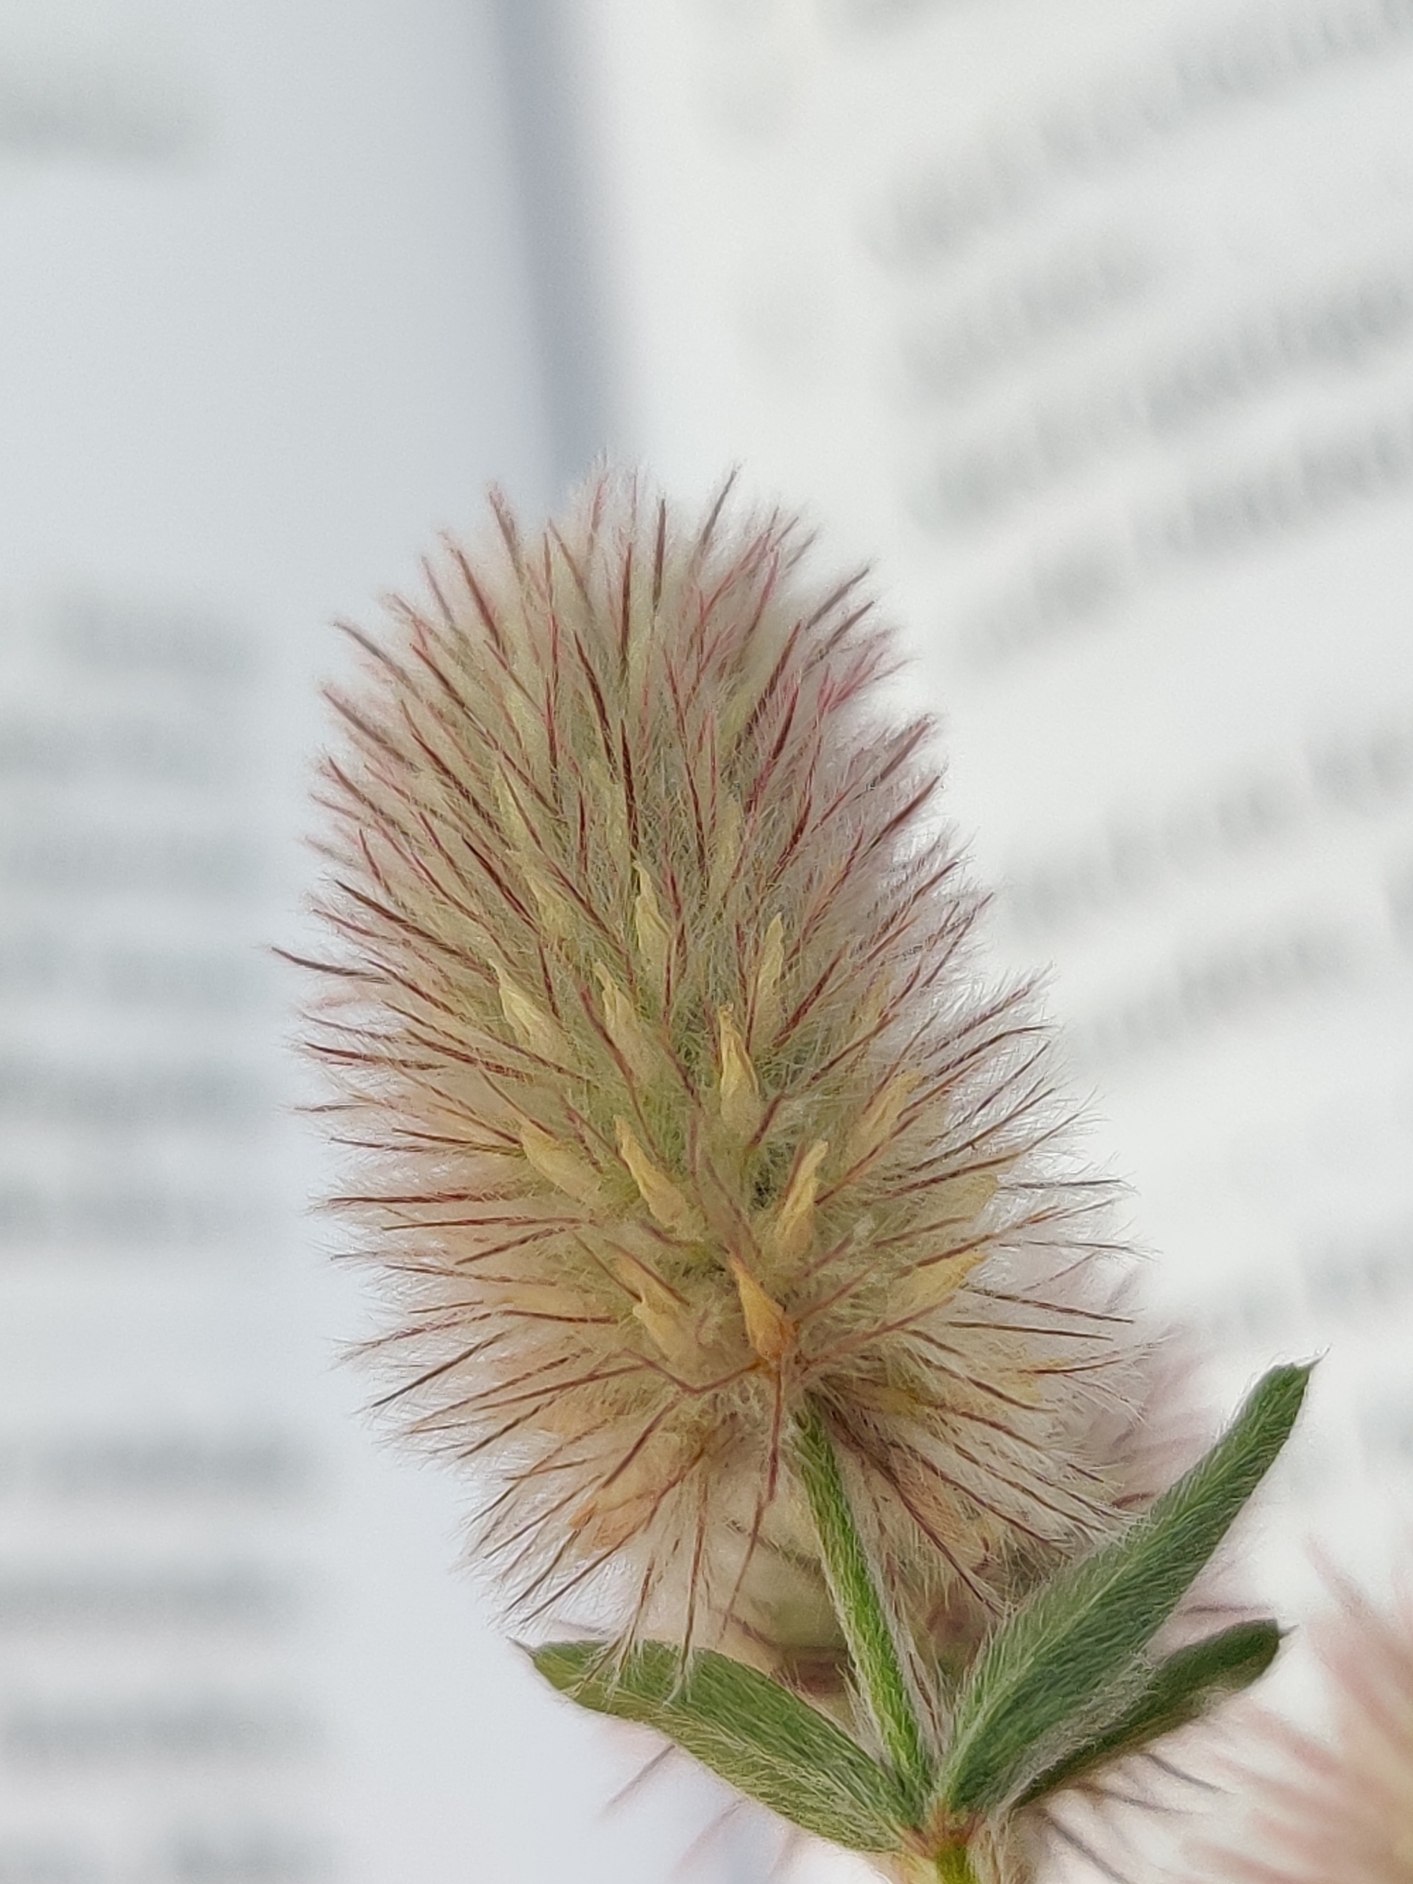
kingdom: Plantae
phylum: Tracheophyta
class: Magnoliopsida
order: Fabales
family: Fabaceae
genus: Trifolium
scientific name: Trifolium arvense
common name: Hare-kløver
